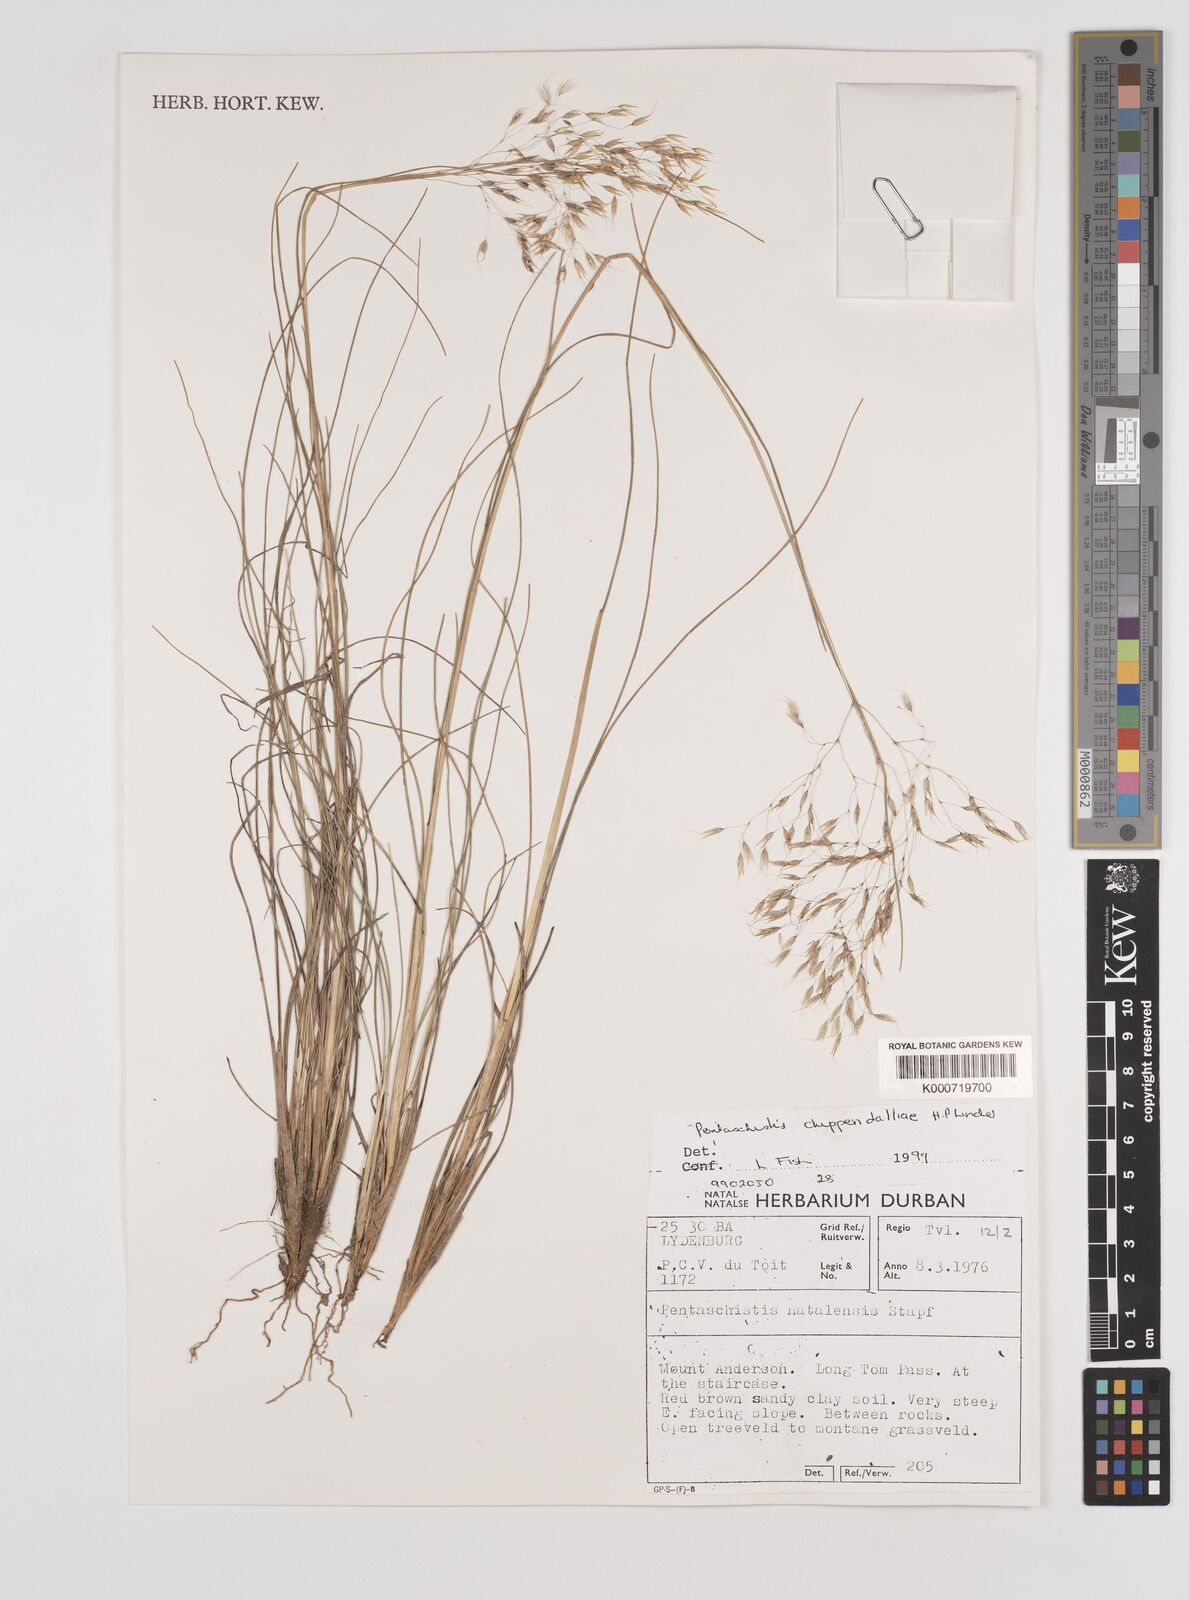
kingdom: Plantae
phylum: Tracheophyta
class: Liliopsida
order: Poales
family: Poaceae
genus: Pentameris
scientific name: Pentameris chippindalliae
